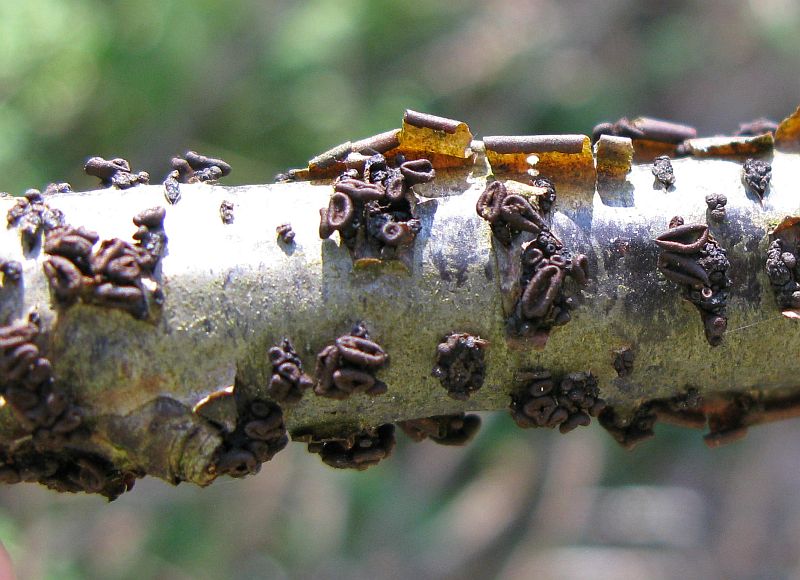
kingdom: Fungi
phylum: Ascomycota
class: Leotiomycetes
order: Helotiales
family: Godroniaceae
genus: Godronia
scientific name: Godronia ribis
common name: ribs-urneskive
